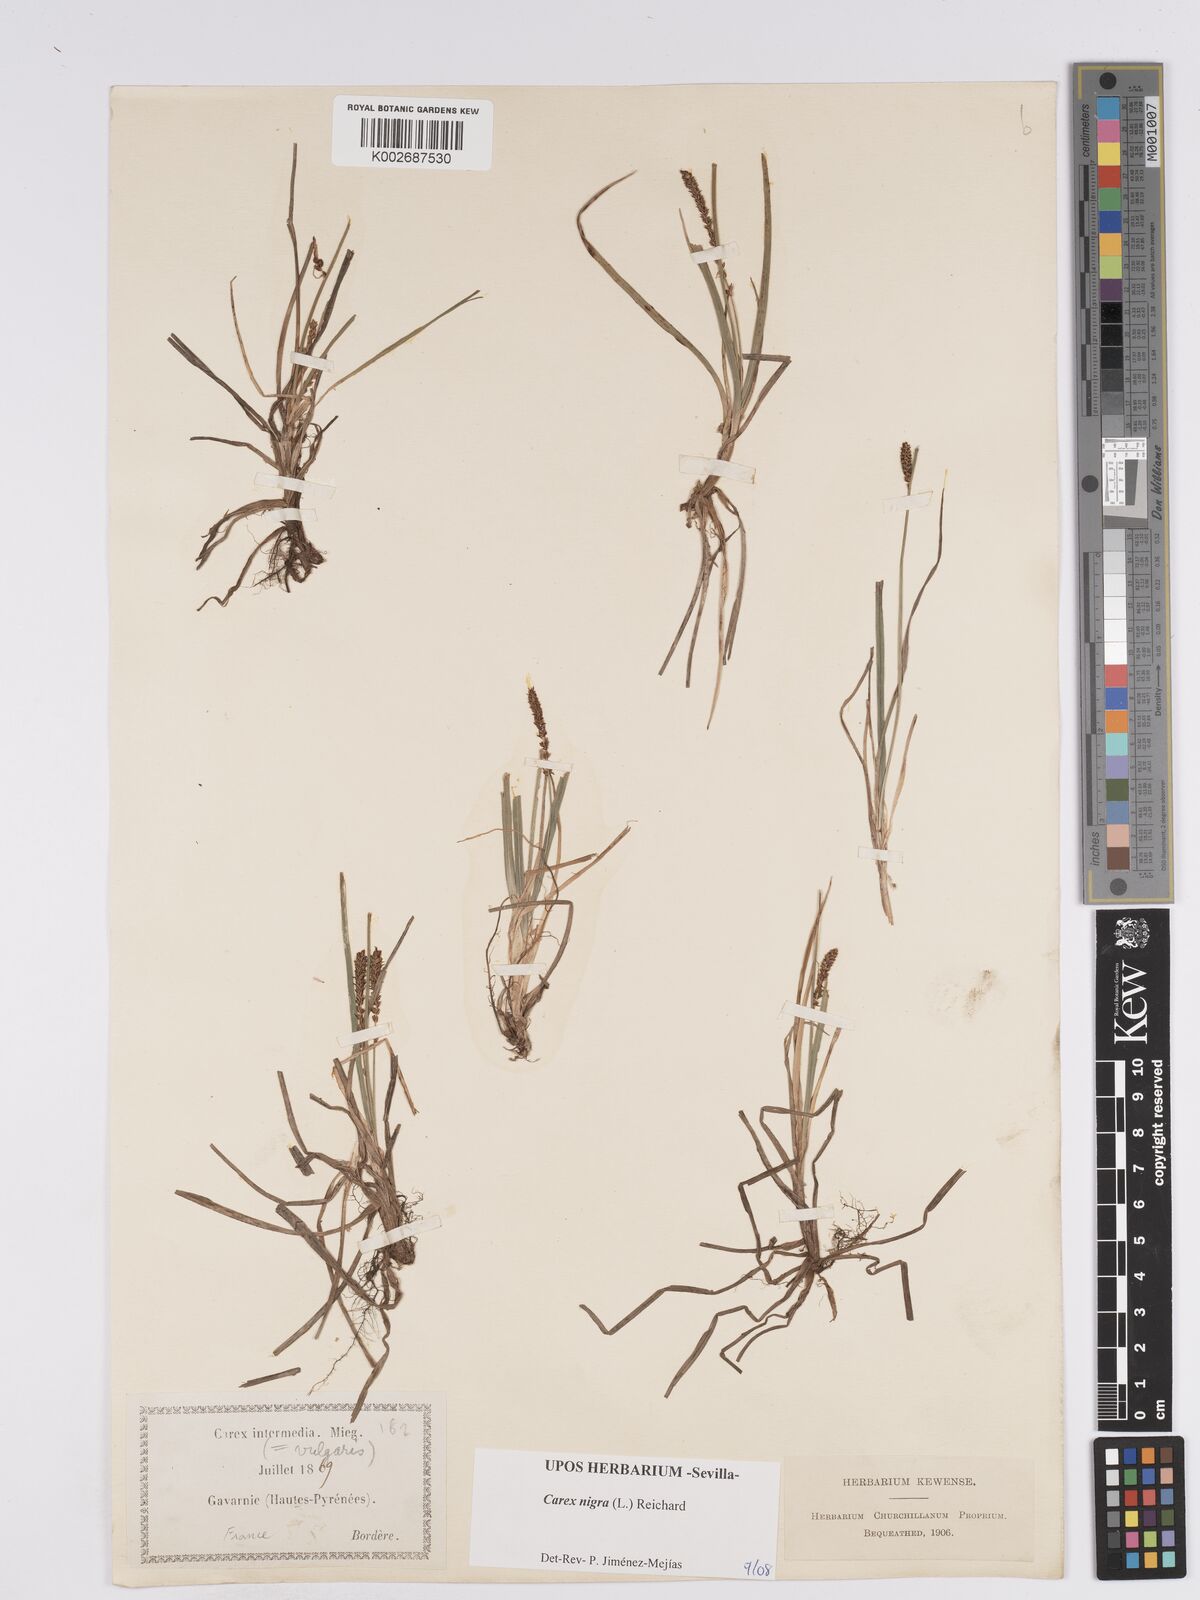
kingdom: Plantae
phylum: Tracheophyta
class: Liliopsida
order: Poales
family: Cyperaceae
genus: Carex
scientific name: Carex nigra
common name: Common sedge
